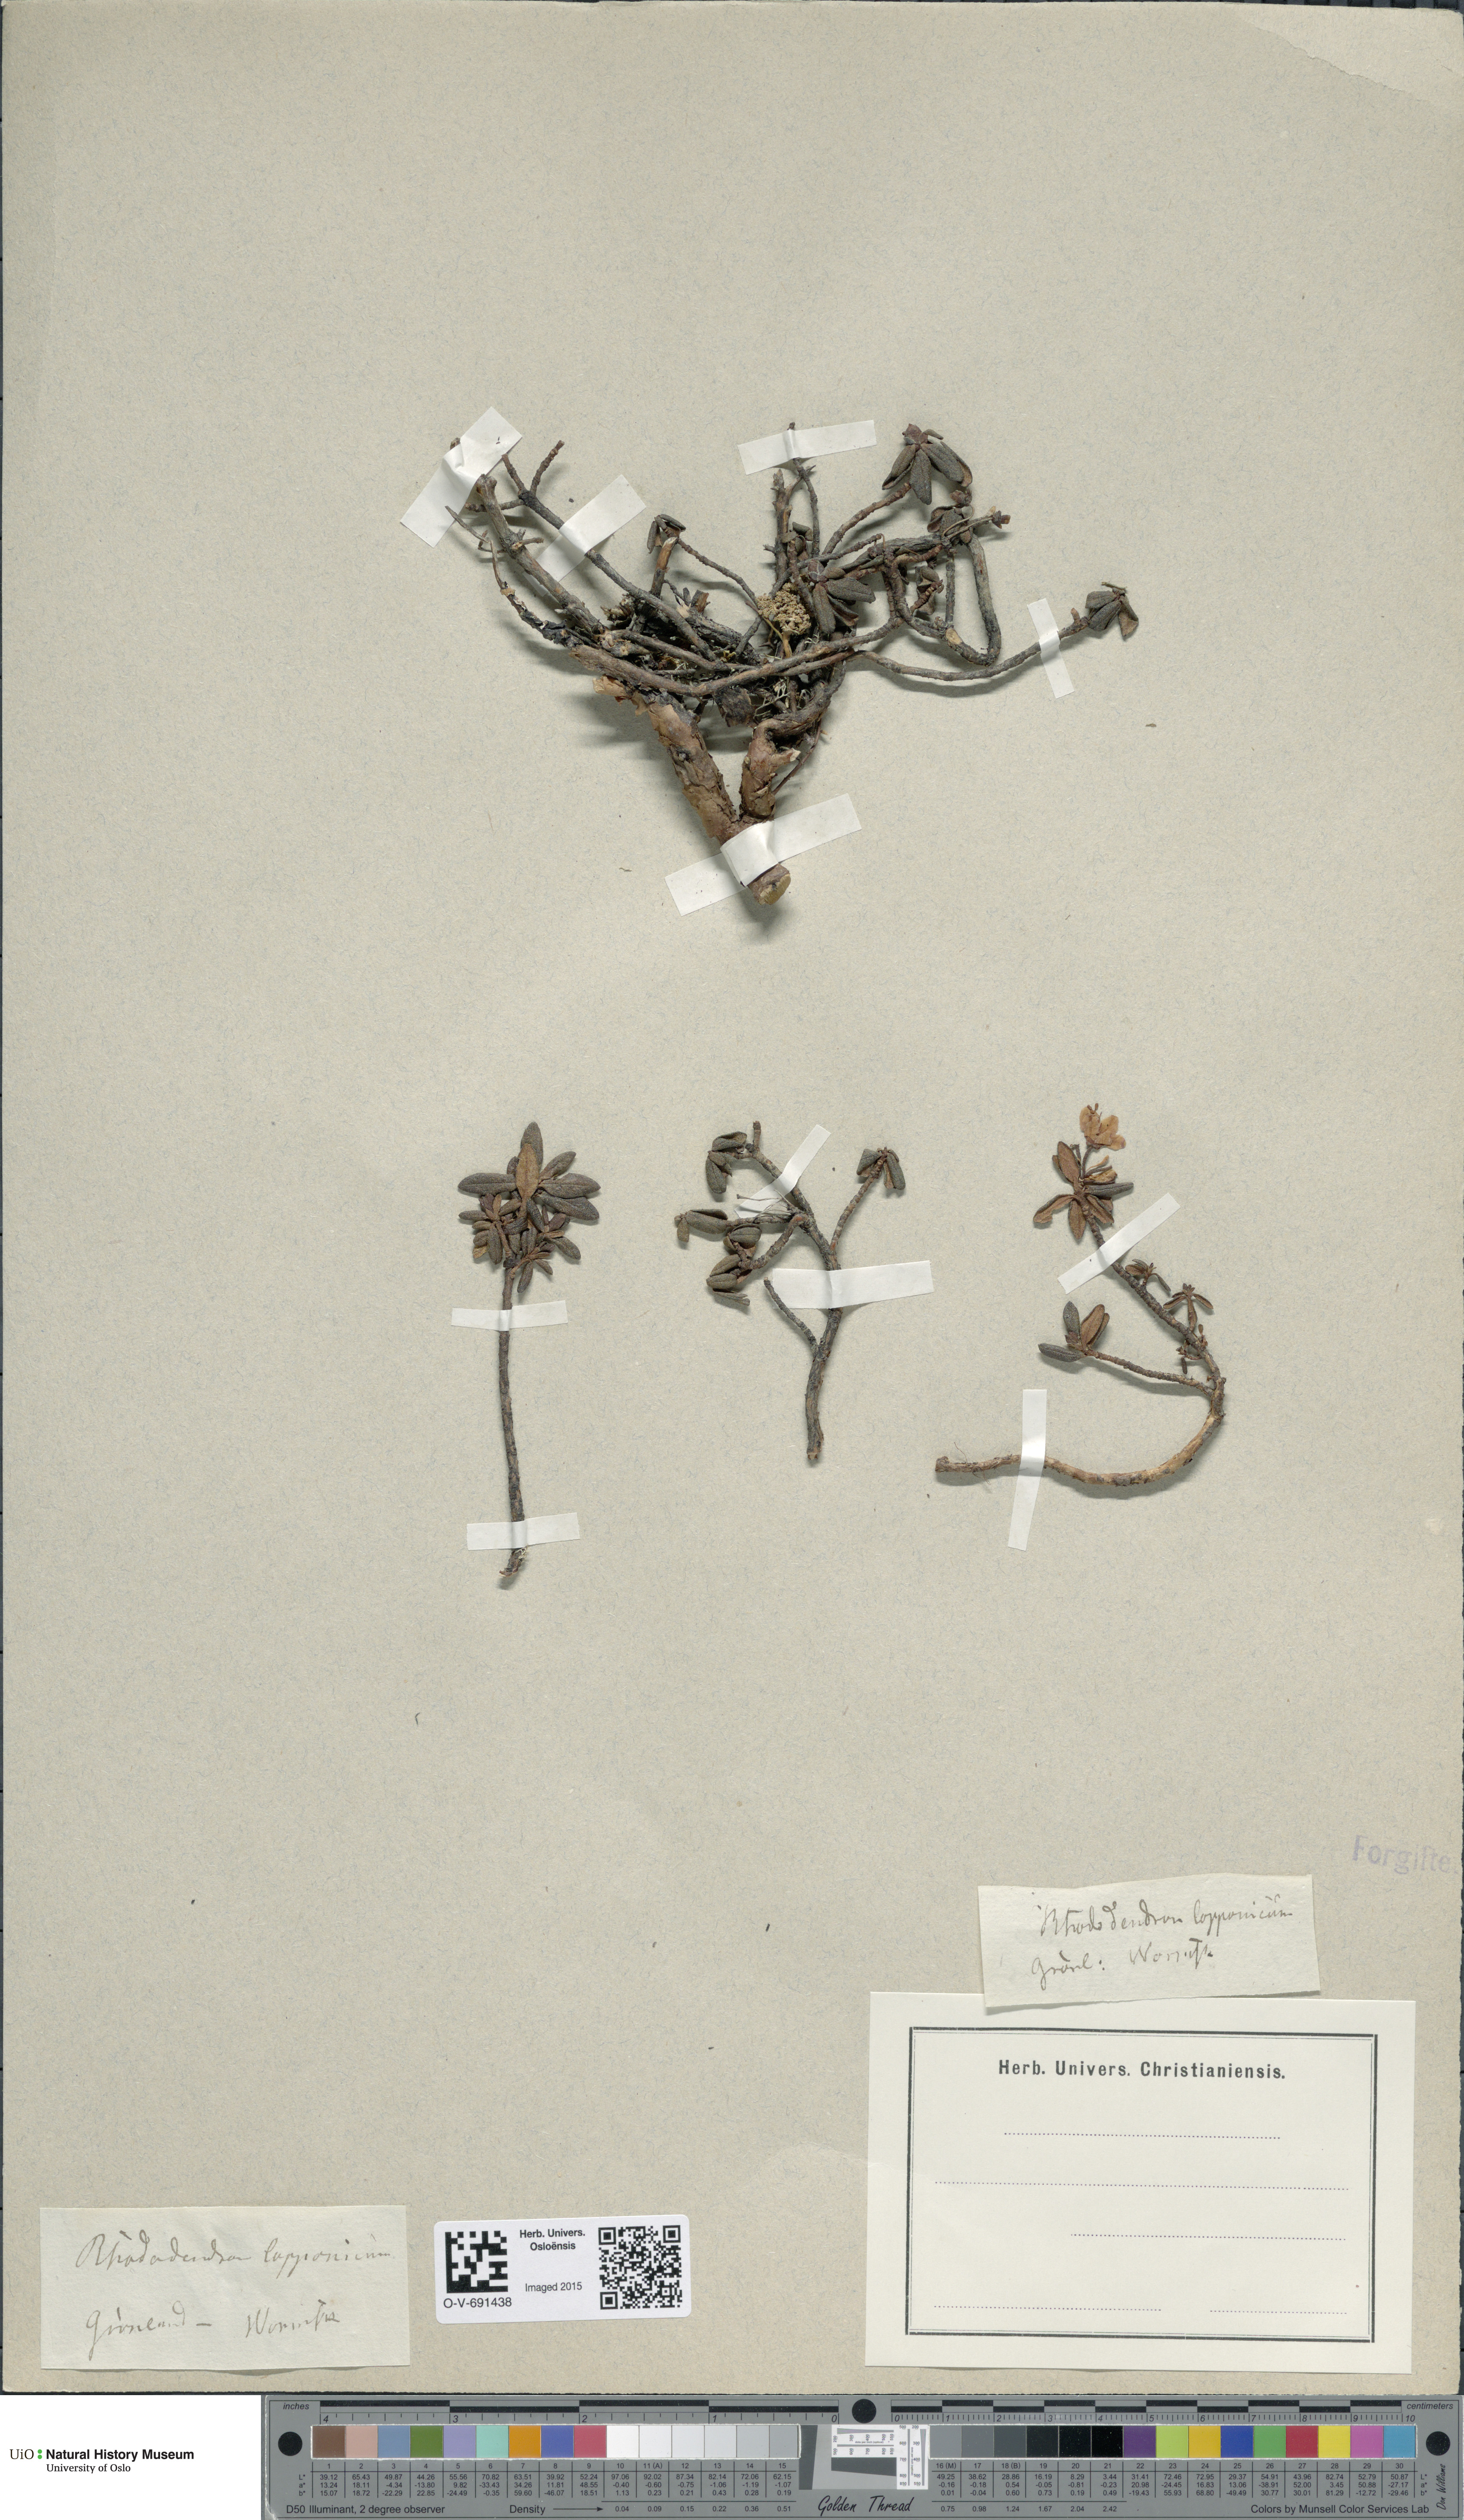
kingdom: Plantae
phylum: Tracheophyta
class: Magnoliopsida
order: Ericales
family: Ericaceae
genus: Rhododendron
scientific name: Rhododendron lapponicum
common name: Lapland rhododendron
